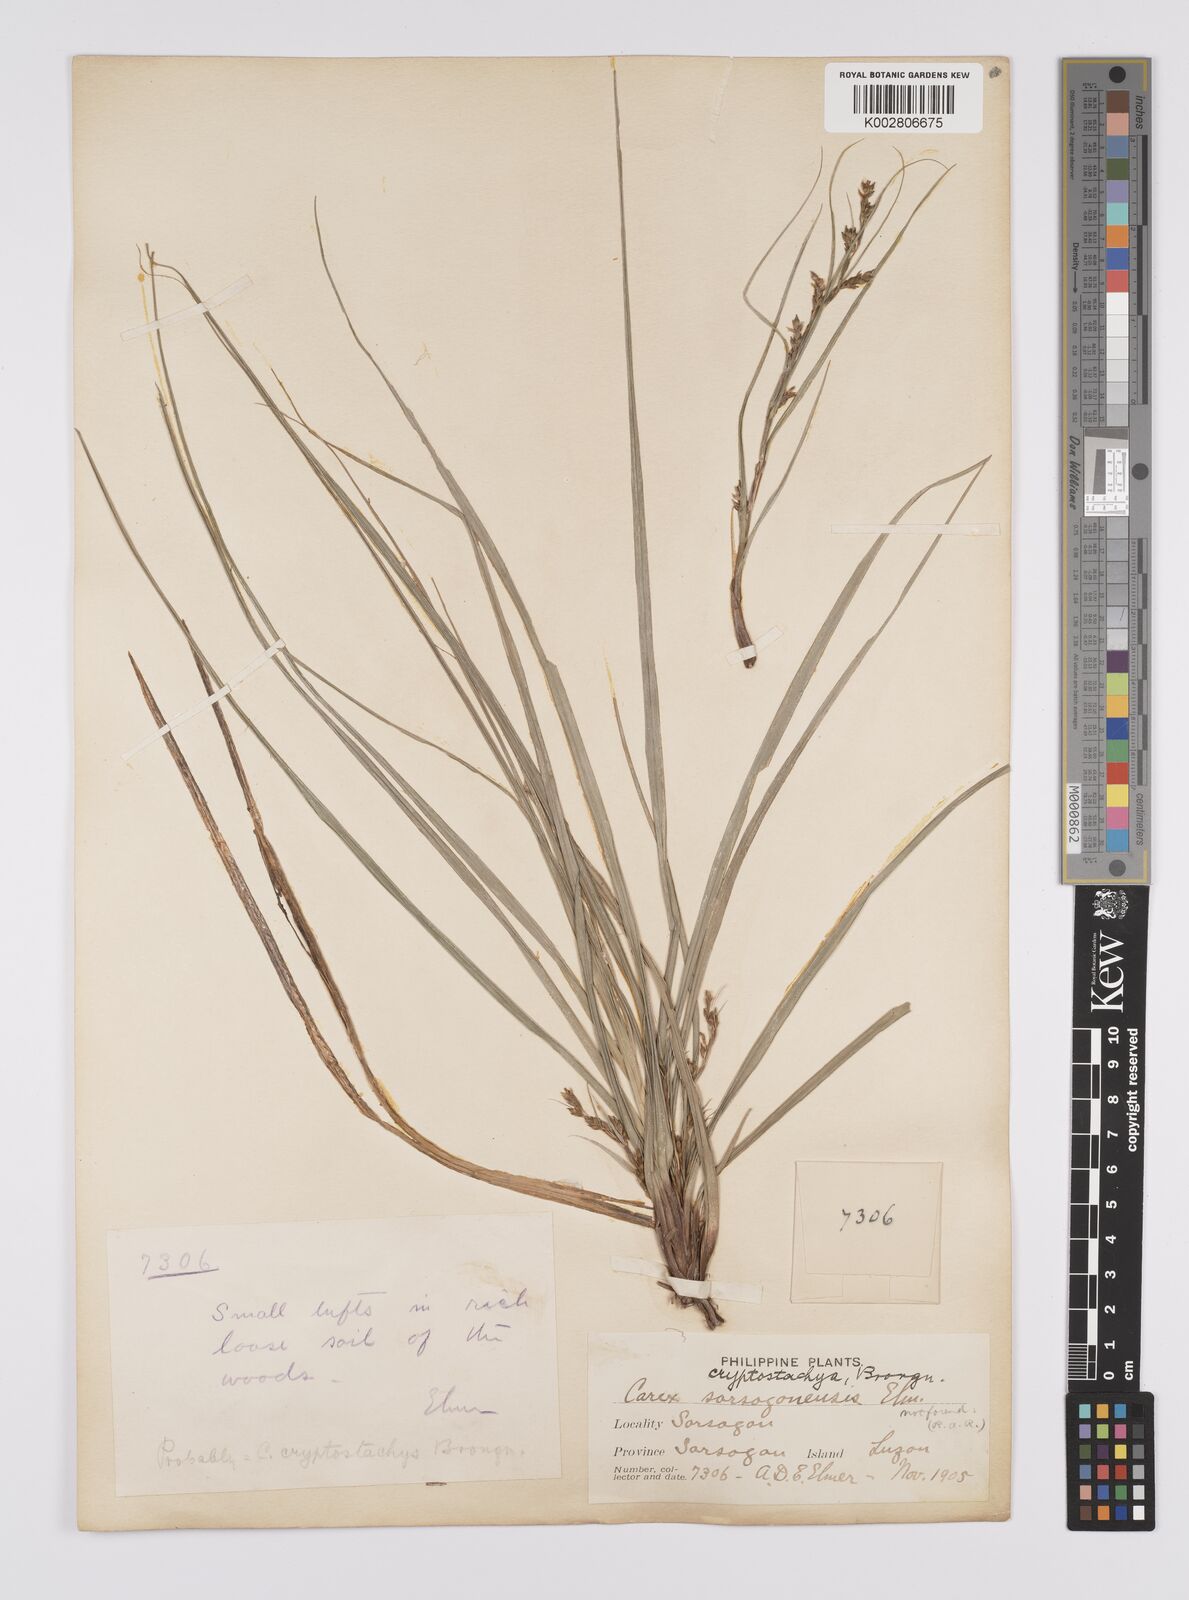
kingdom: Plantae
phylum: Tracheophyta
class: Liliopsida
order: Poales
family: Cyperaceae
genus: Carex
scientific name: Carex cryptostachys
